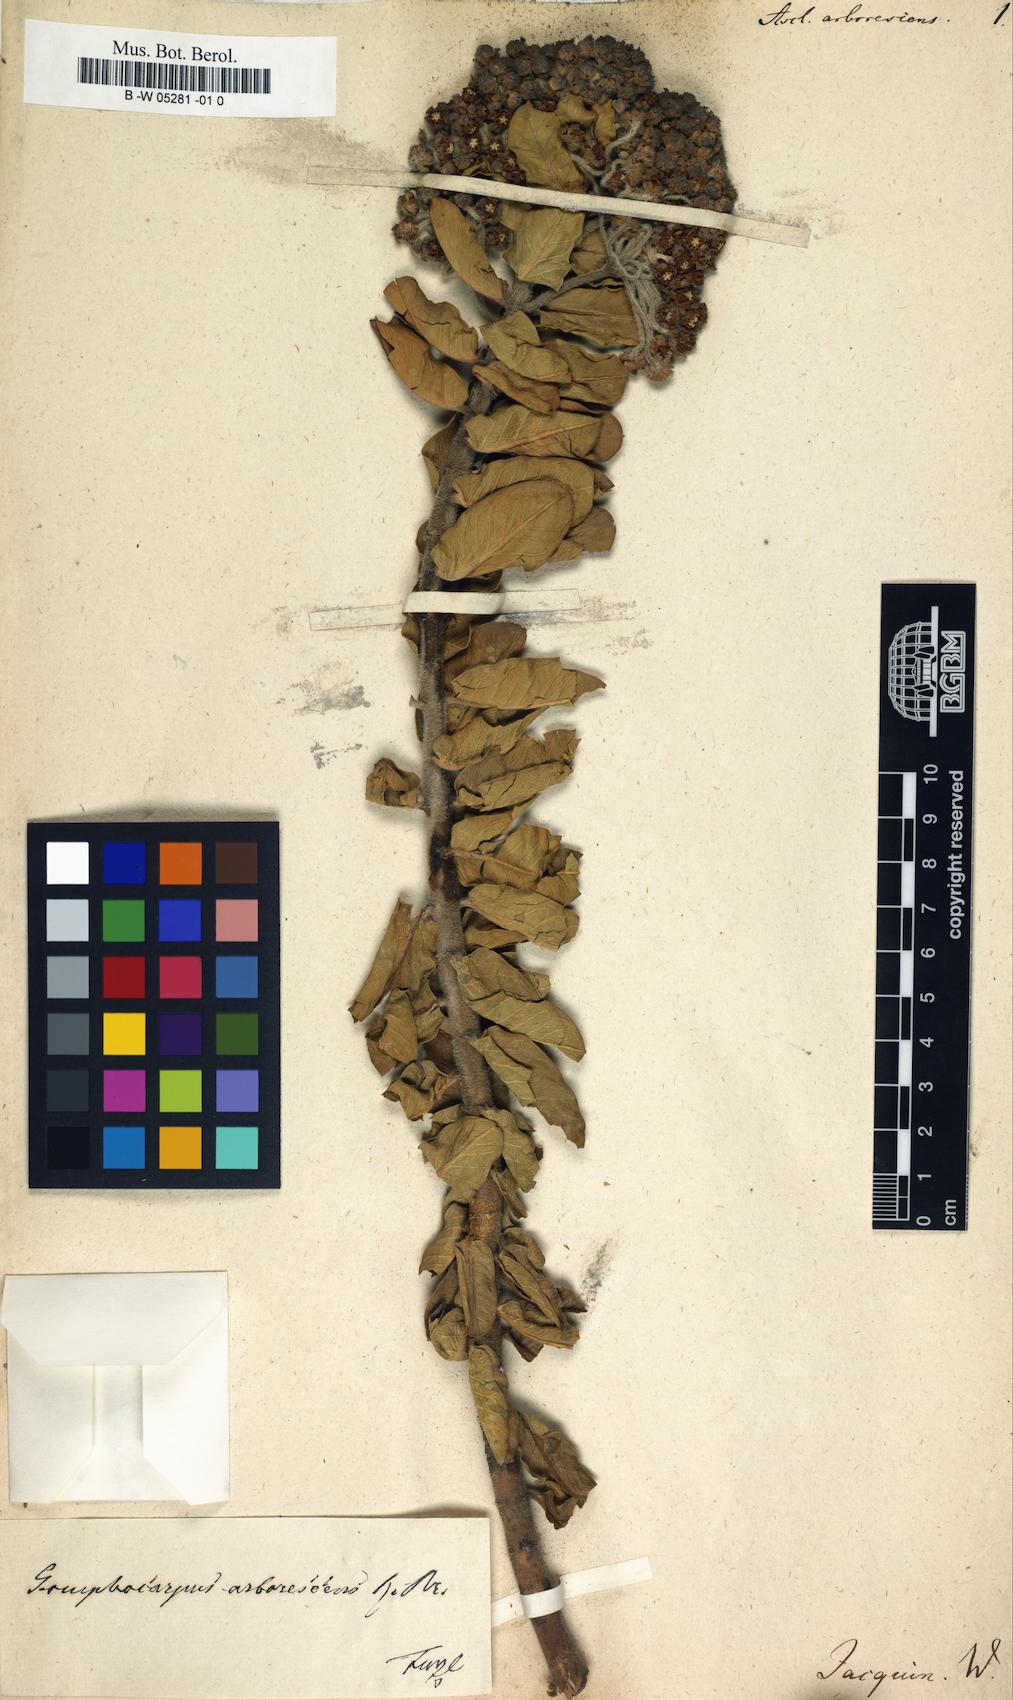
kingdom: Plantae
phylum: Tracheophyta
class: Magnoliopsida
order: Gentianales
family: Apocynaceae
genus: Gomphocarpus
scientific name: Gomphocarpus cancellatus
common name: Wild cotton
